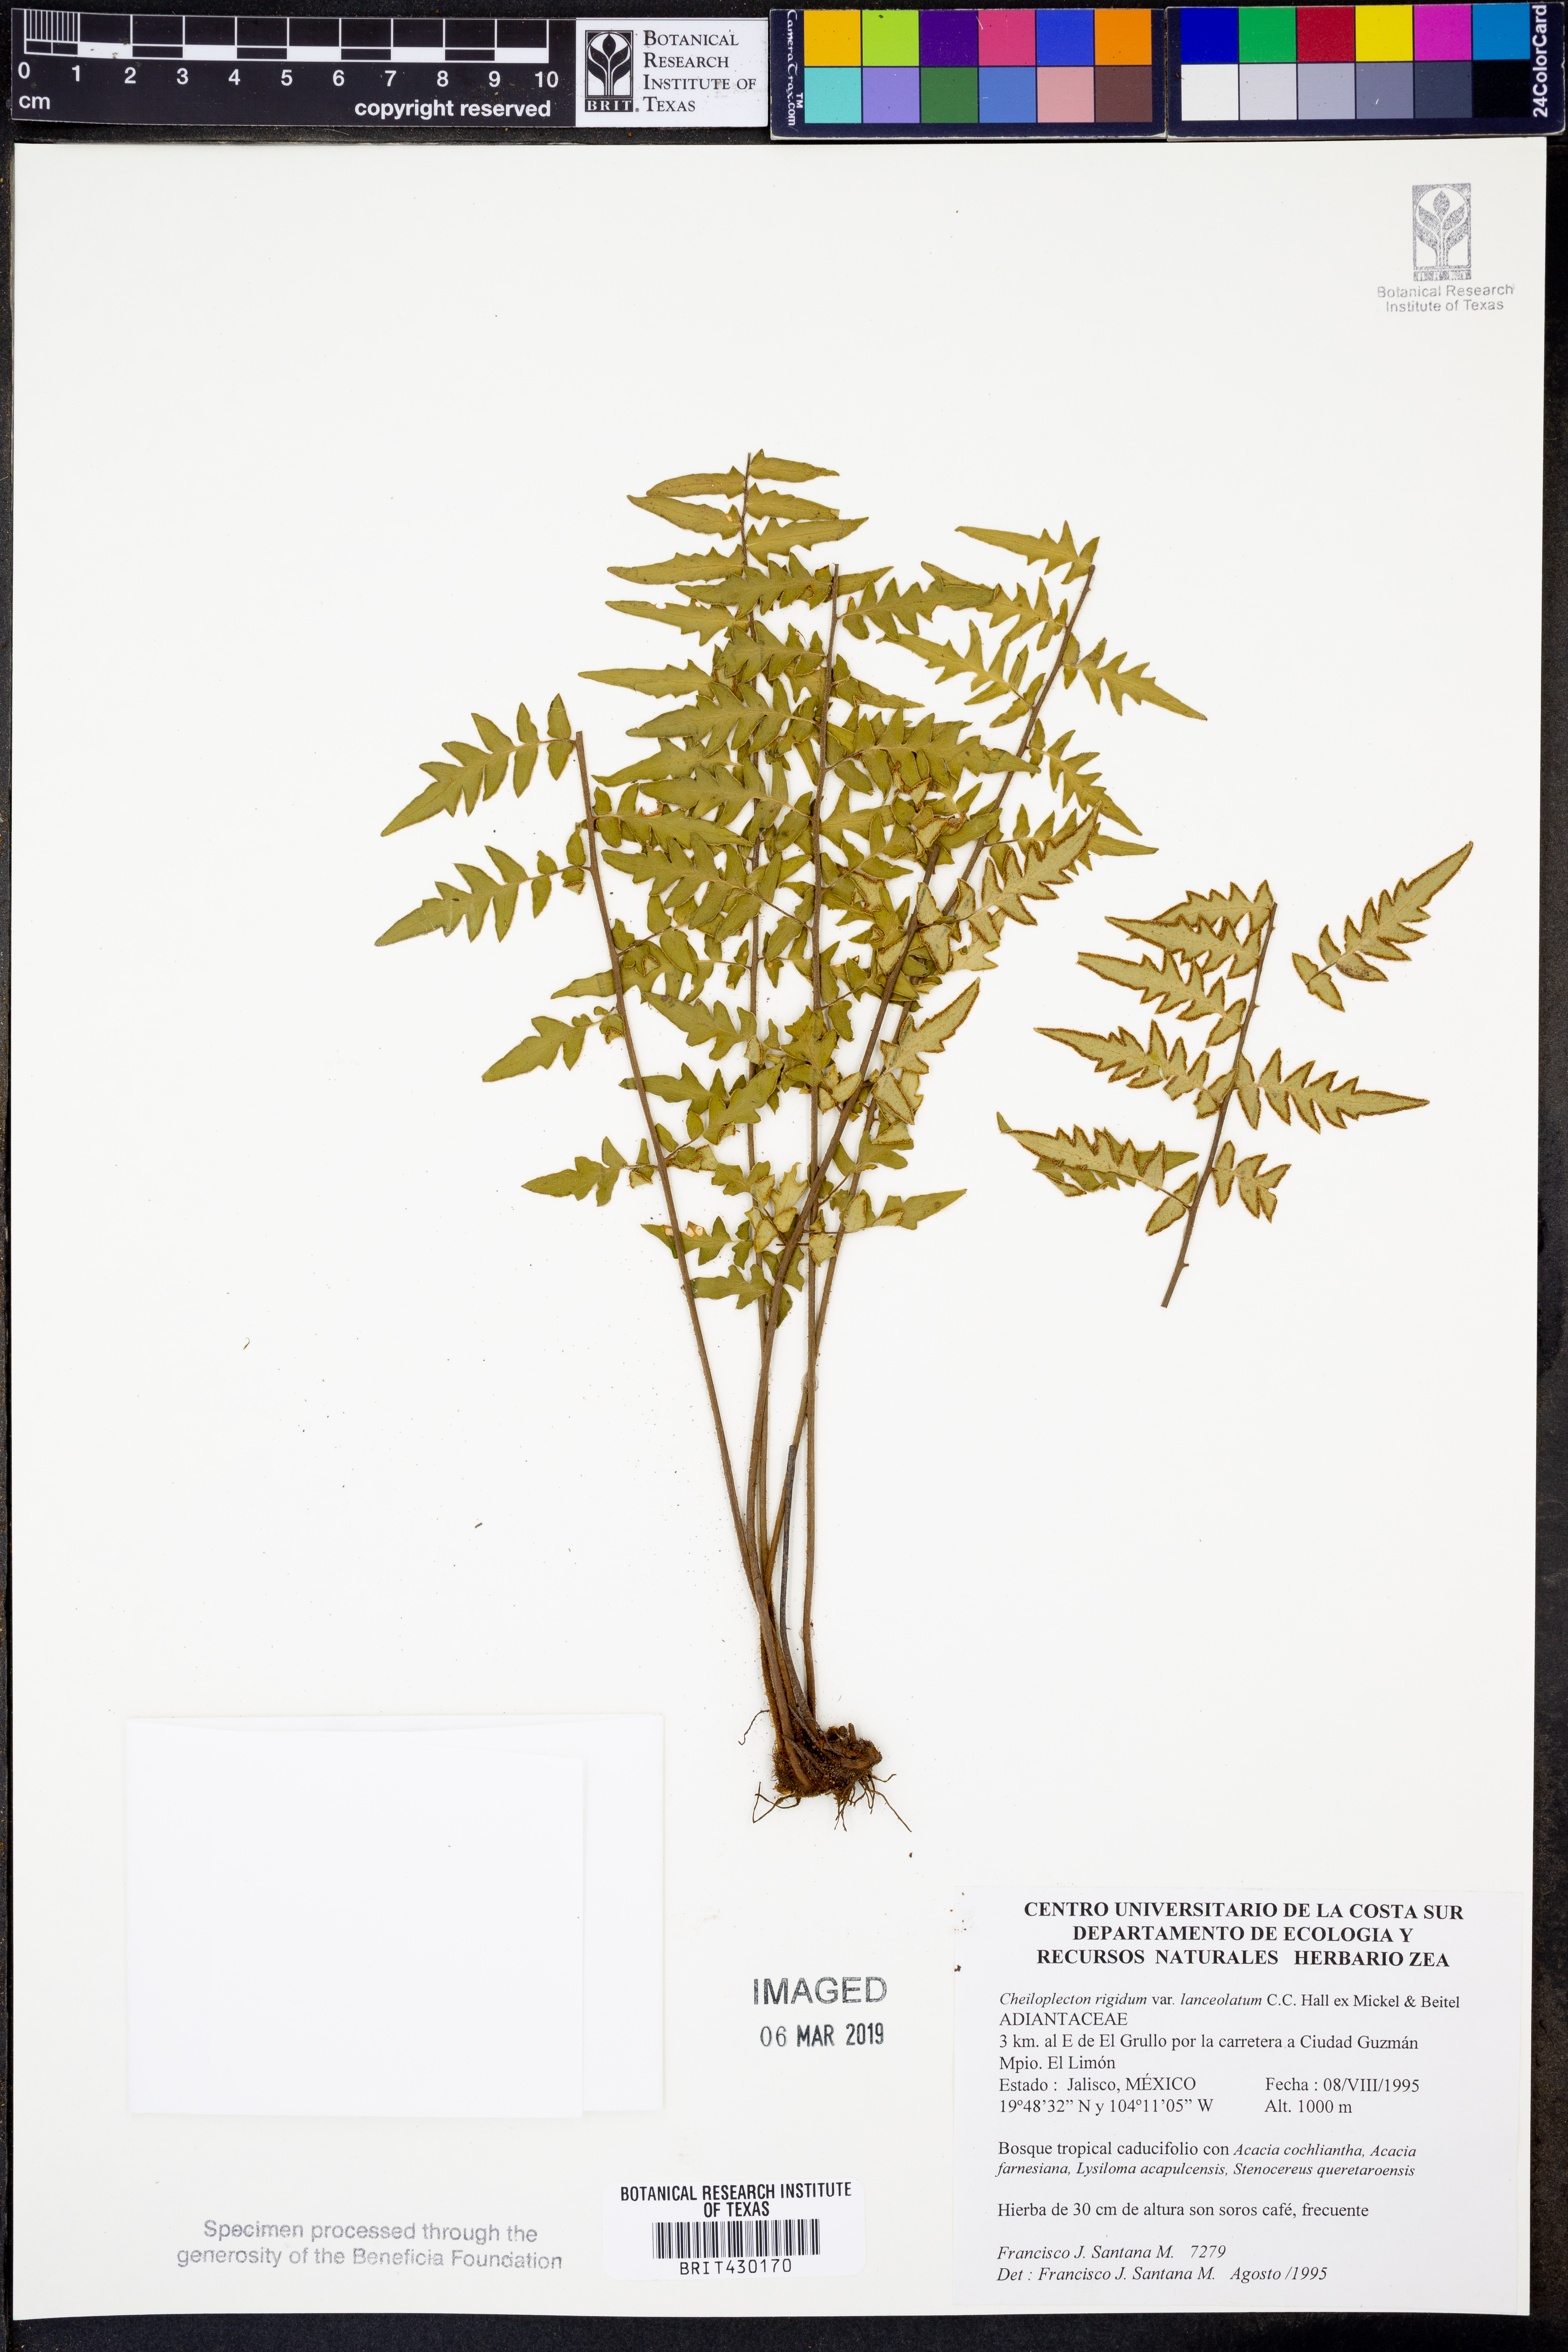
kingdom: Plantae
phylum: Tracheophyta
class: Polypodiopsida
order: Polypodiales
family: Pteridaceae
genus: Cheiloplecton
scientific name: Cheiloplecton rigidum
